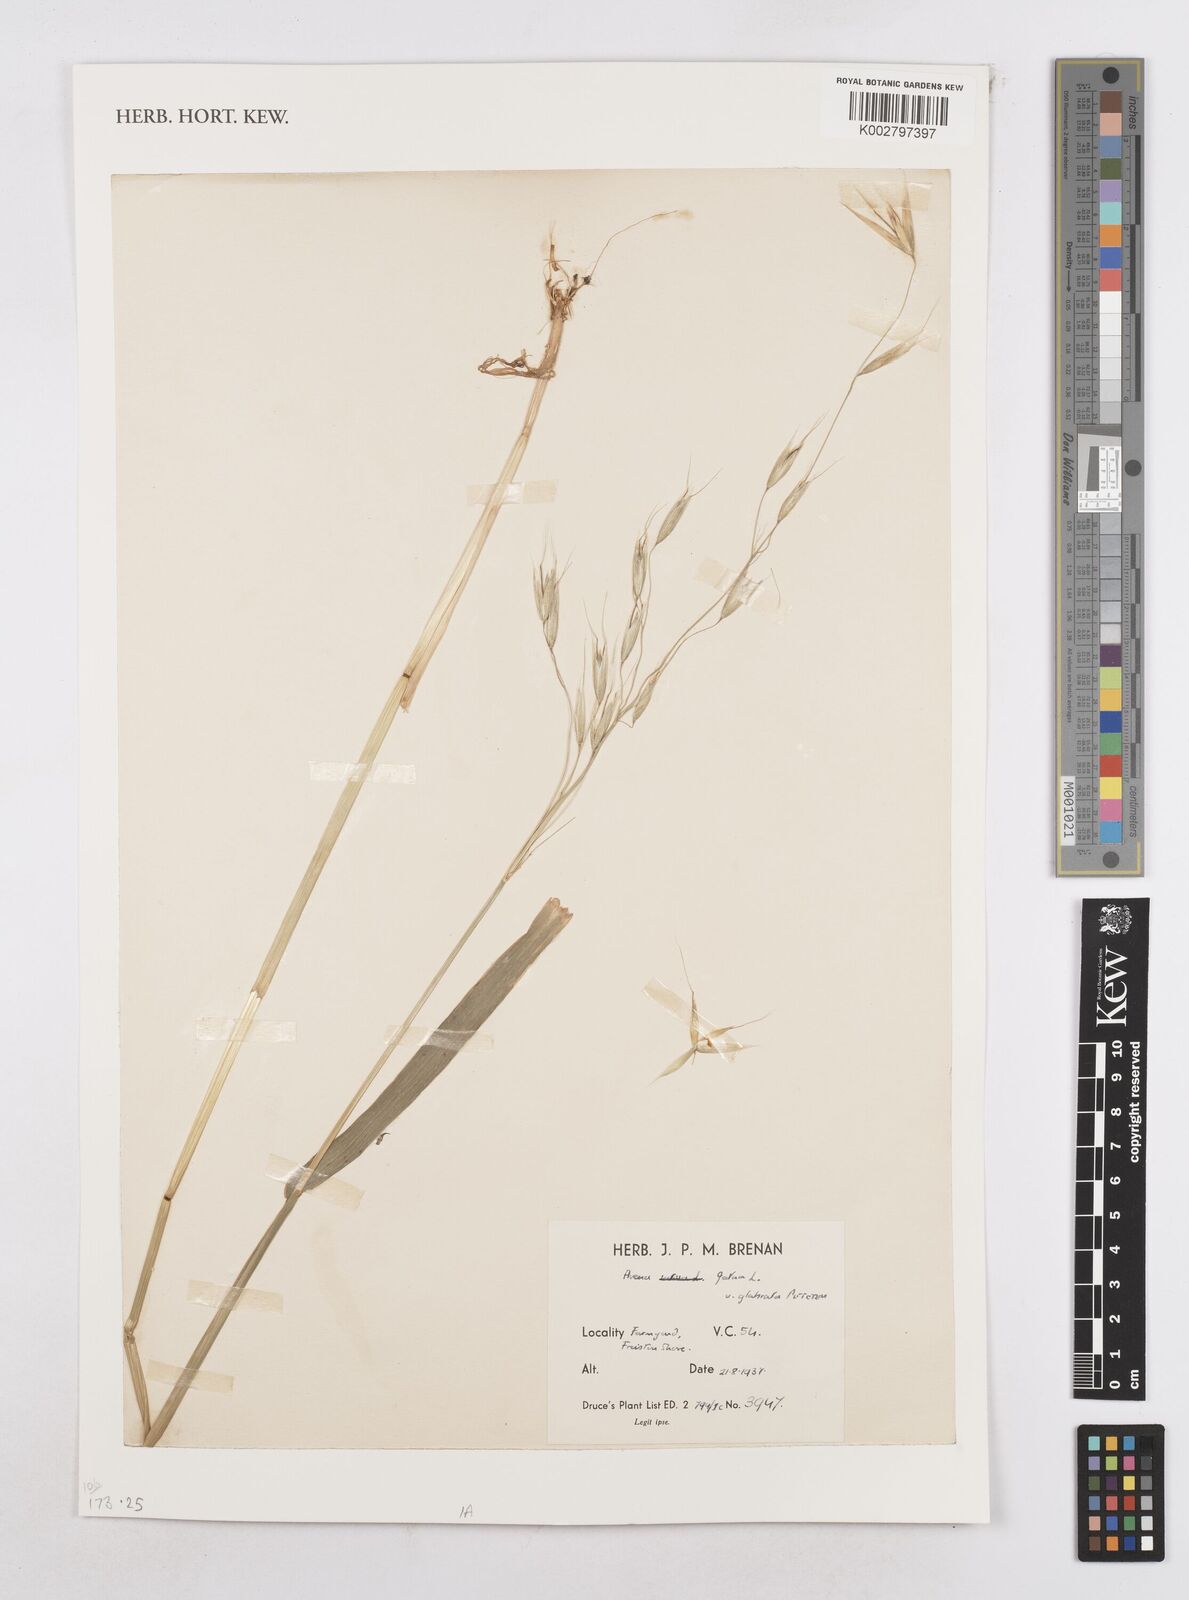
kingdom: Plantae
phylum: Tracheophyta
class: Liliopsida
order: Poales
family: Poaceae
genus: Avena
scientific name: Avena fatua
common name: Wild oat
